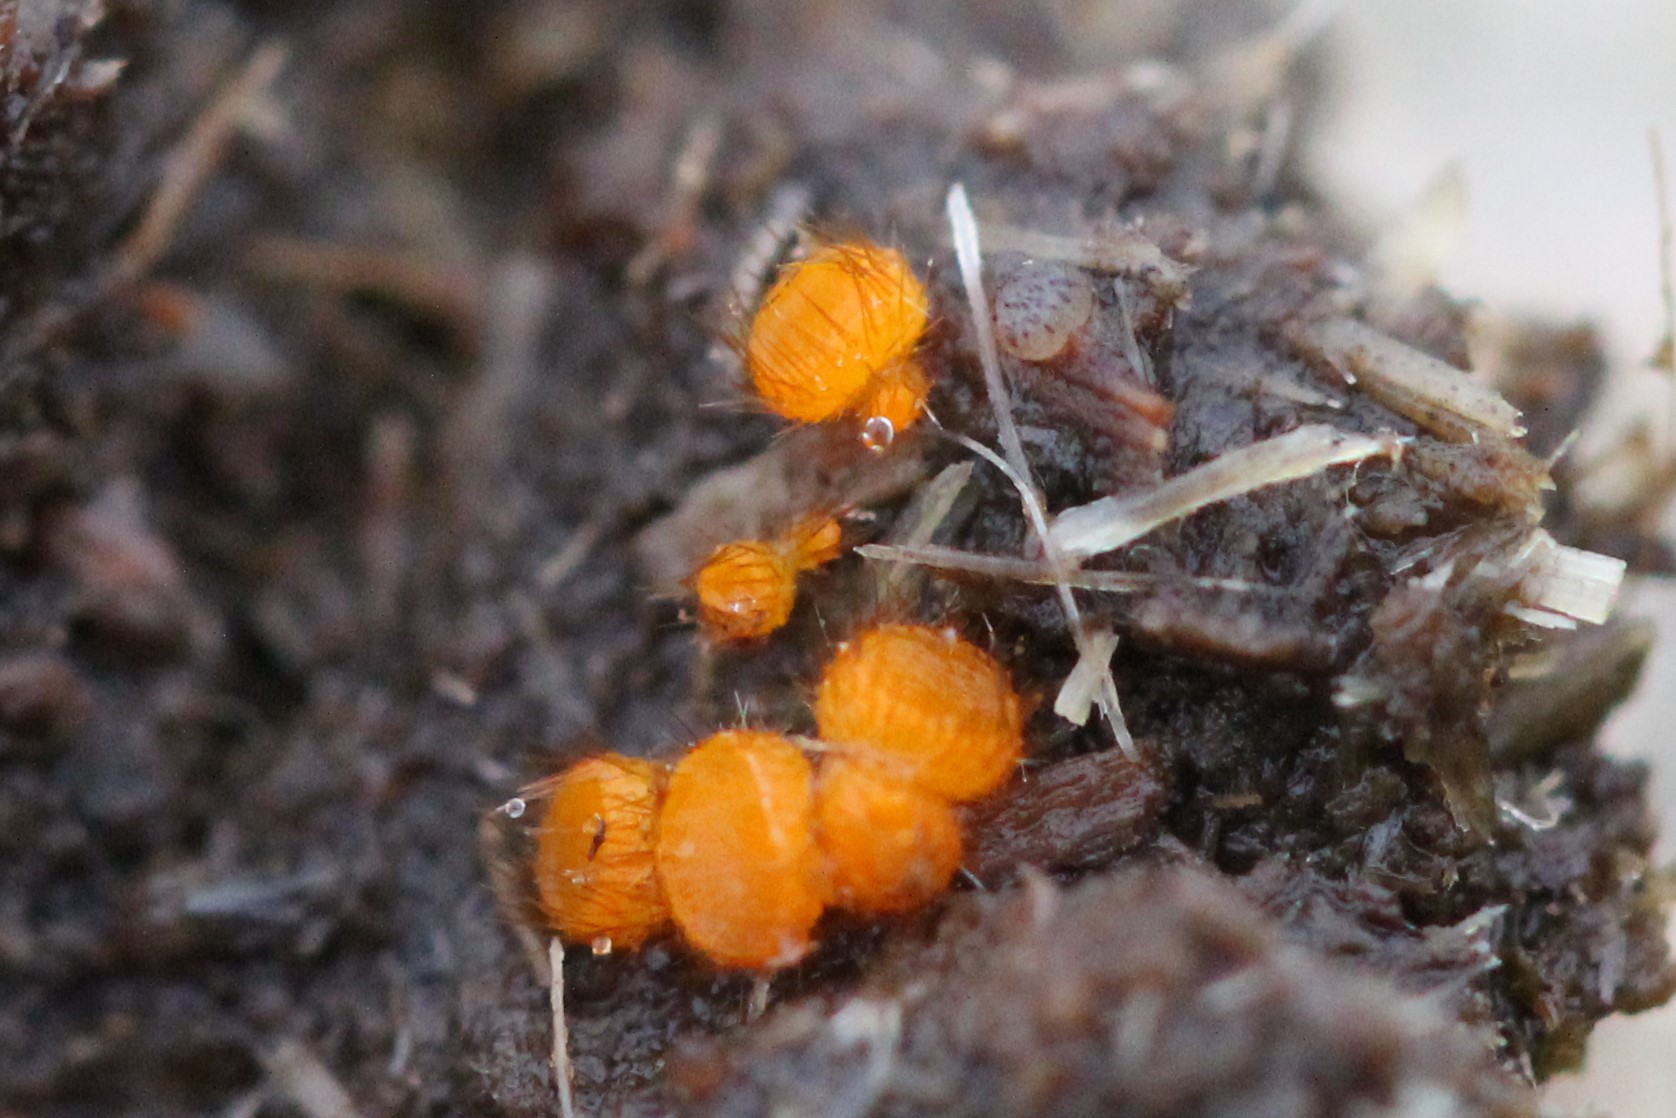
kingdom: Fungi
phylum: Ascomycota
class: Pezizomycetes
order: Pezizales
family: Pyronemataceae
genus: Cheilymenia
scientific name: Cheilymenia
